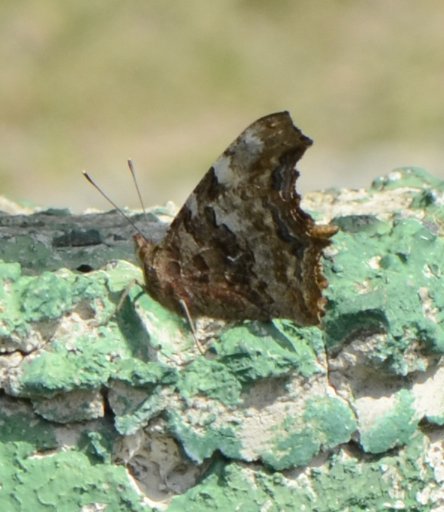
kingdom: Animalia
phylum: Arthropoda
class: Insecta
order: Lepidoptera
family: Nymphalidae
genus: Polygonia
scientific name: Polygonia vaualbum
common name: Compton Tortoiseshell
